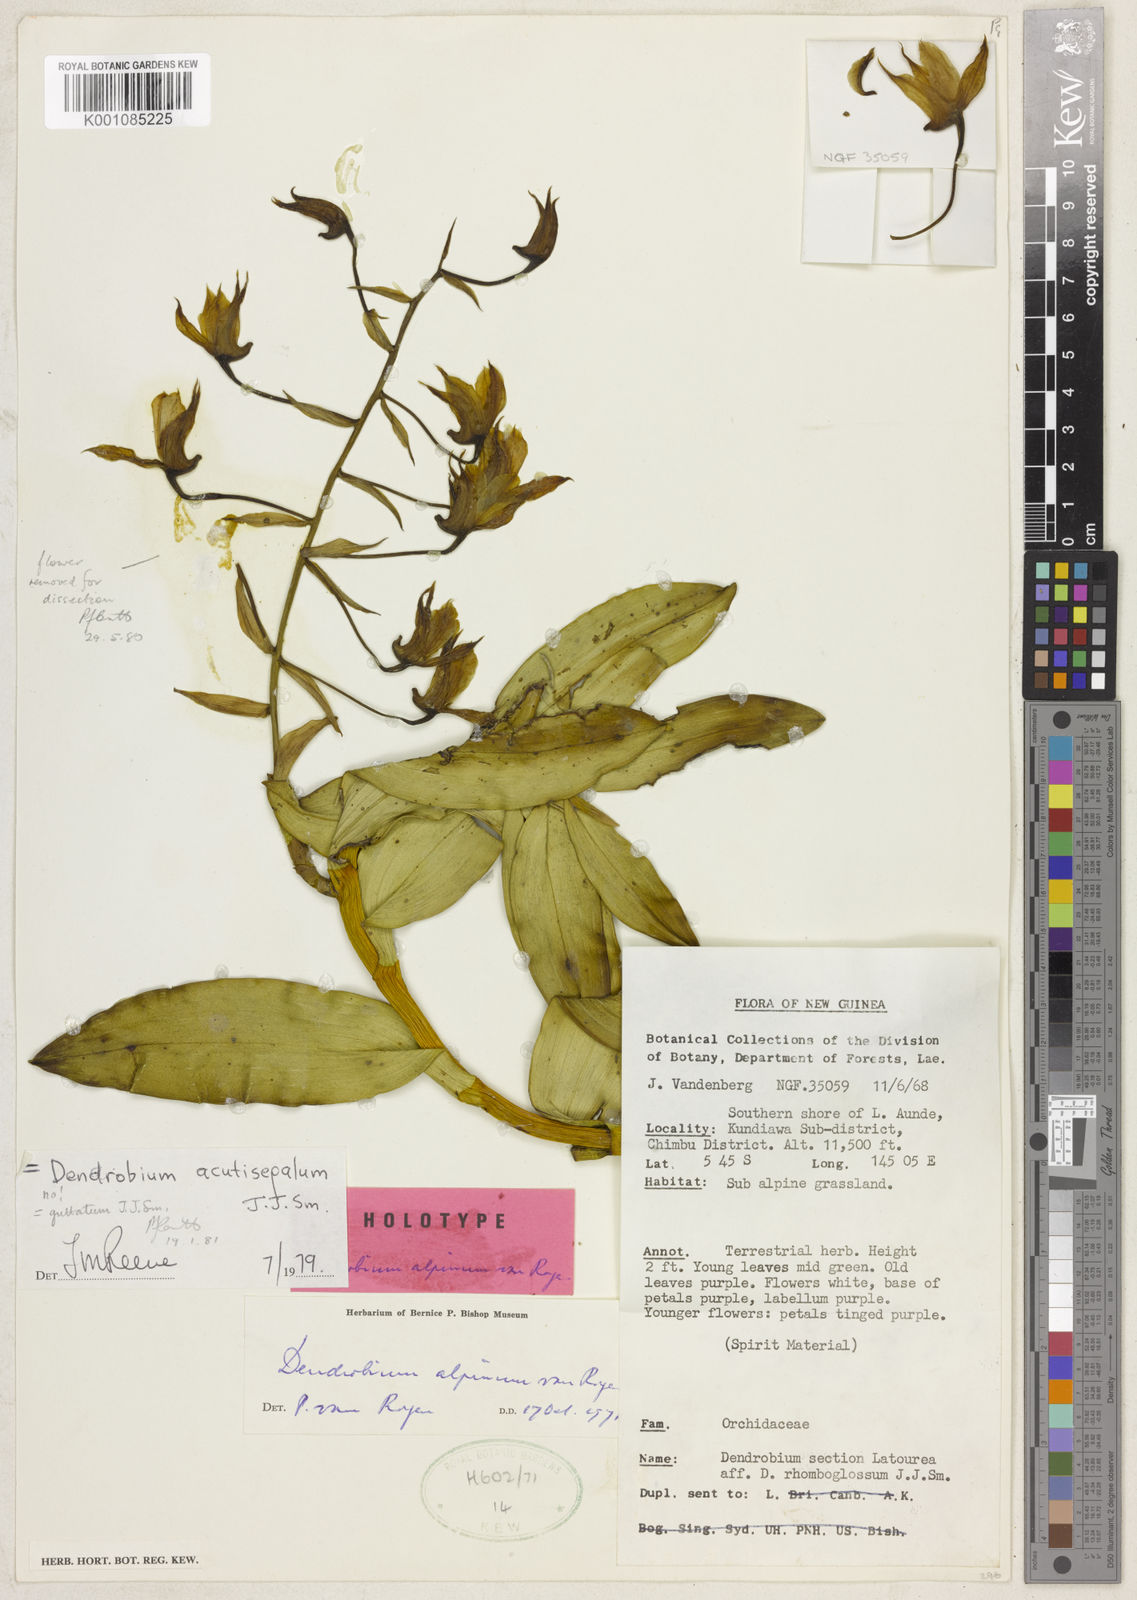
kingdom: Plantae
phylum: Tracheophyta
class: Liliopsida
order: Asparagales
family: Orchidaceae
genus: Dendrobium
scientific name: Dendrobium rigidifolium
